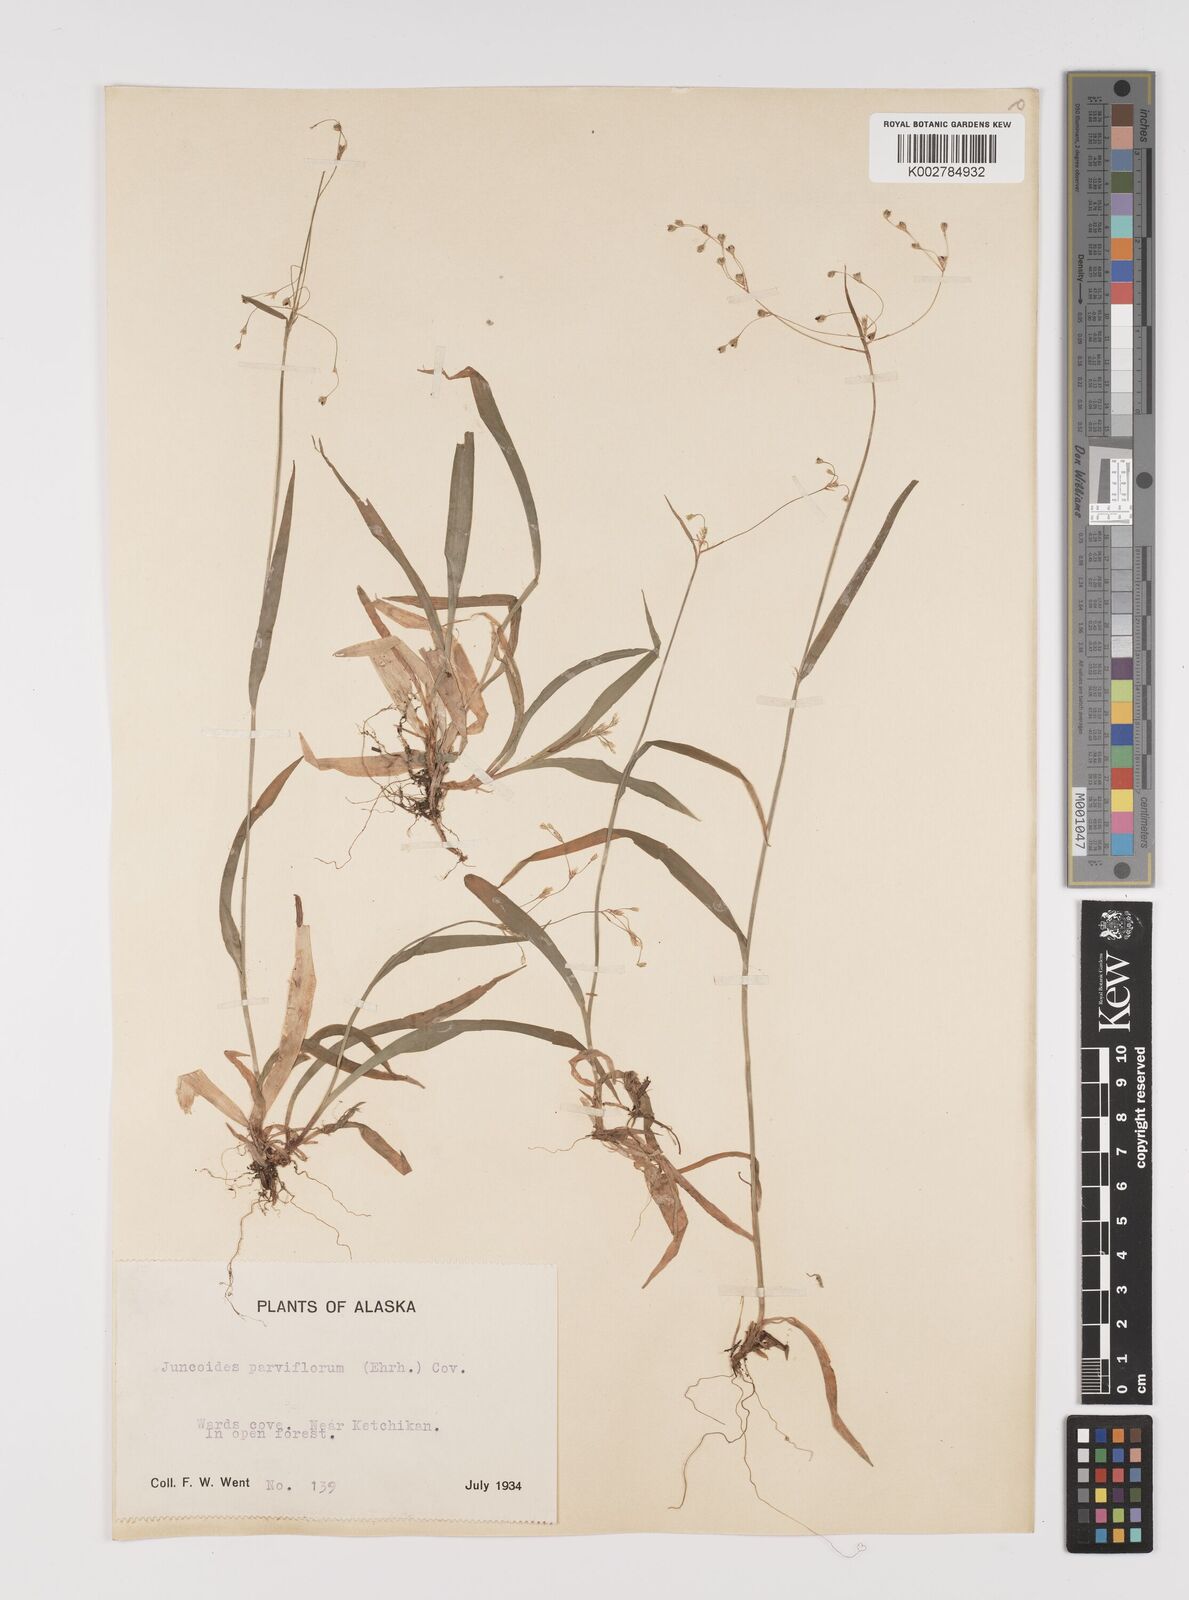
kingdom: Plantae
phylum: Tracheophyta
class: Liliopsida
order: Poales
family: Juncaceae
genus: Luzula
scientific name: Luzula parviflora
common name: Millet woodrush
